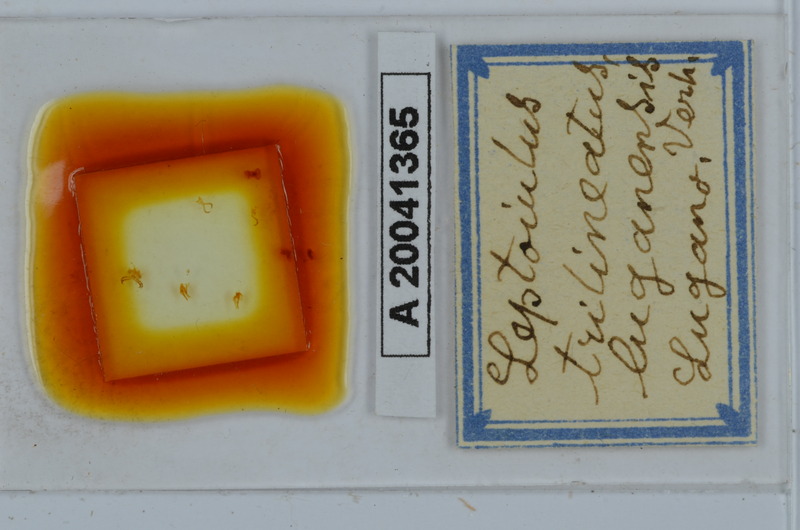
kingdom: Animalia
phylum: Arthropoda
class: Diplopoda
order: Julida
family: Julidae
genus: Leptoiulus
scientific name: Leptoiulus trilineatus
